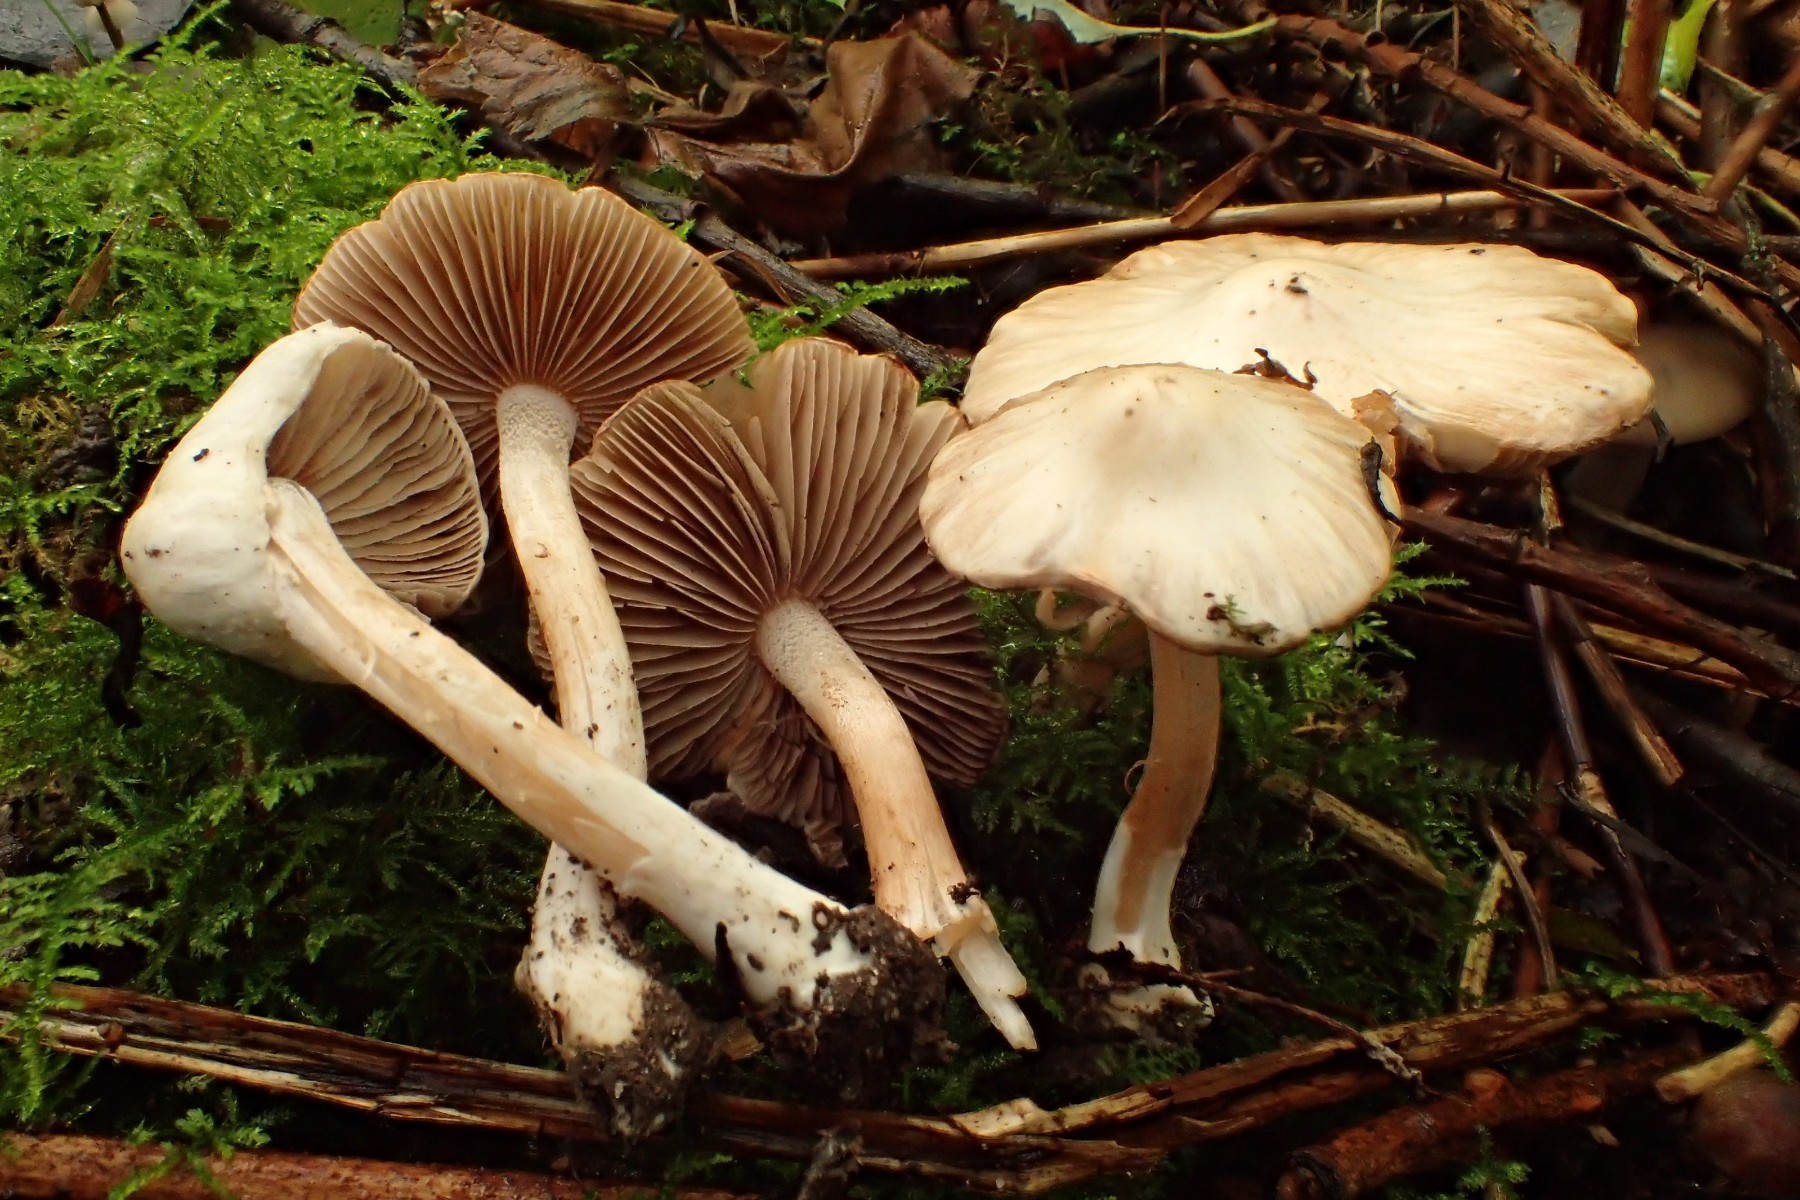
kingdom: Fungi
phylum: Basidiomycota
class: Agaricomycetes
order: Agaricales
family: Inocybaceae
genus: Inocybe
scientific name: Inocybe
